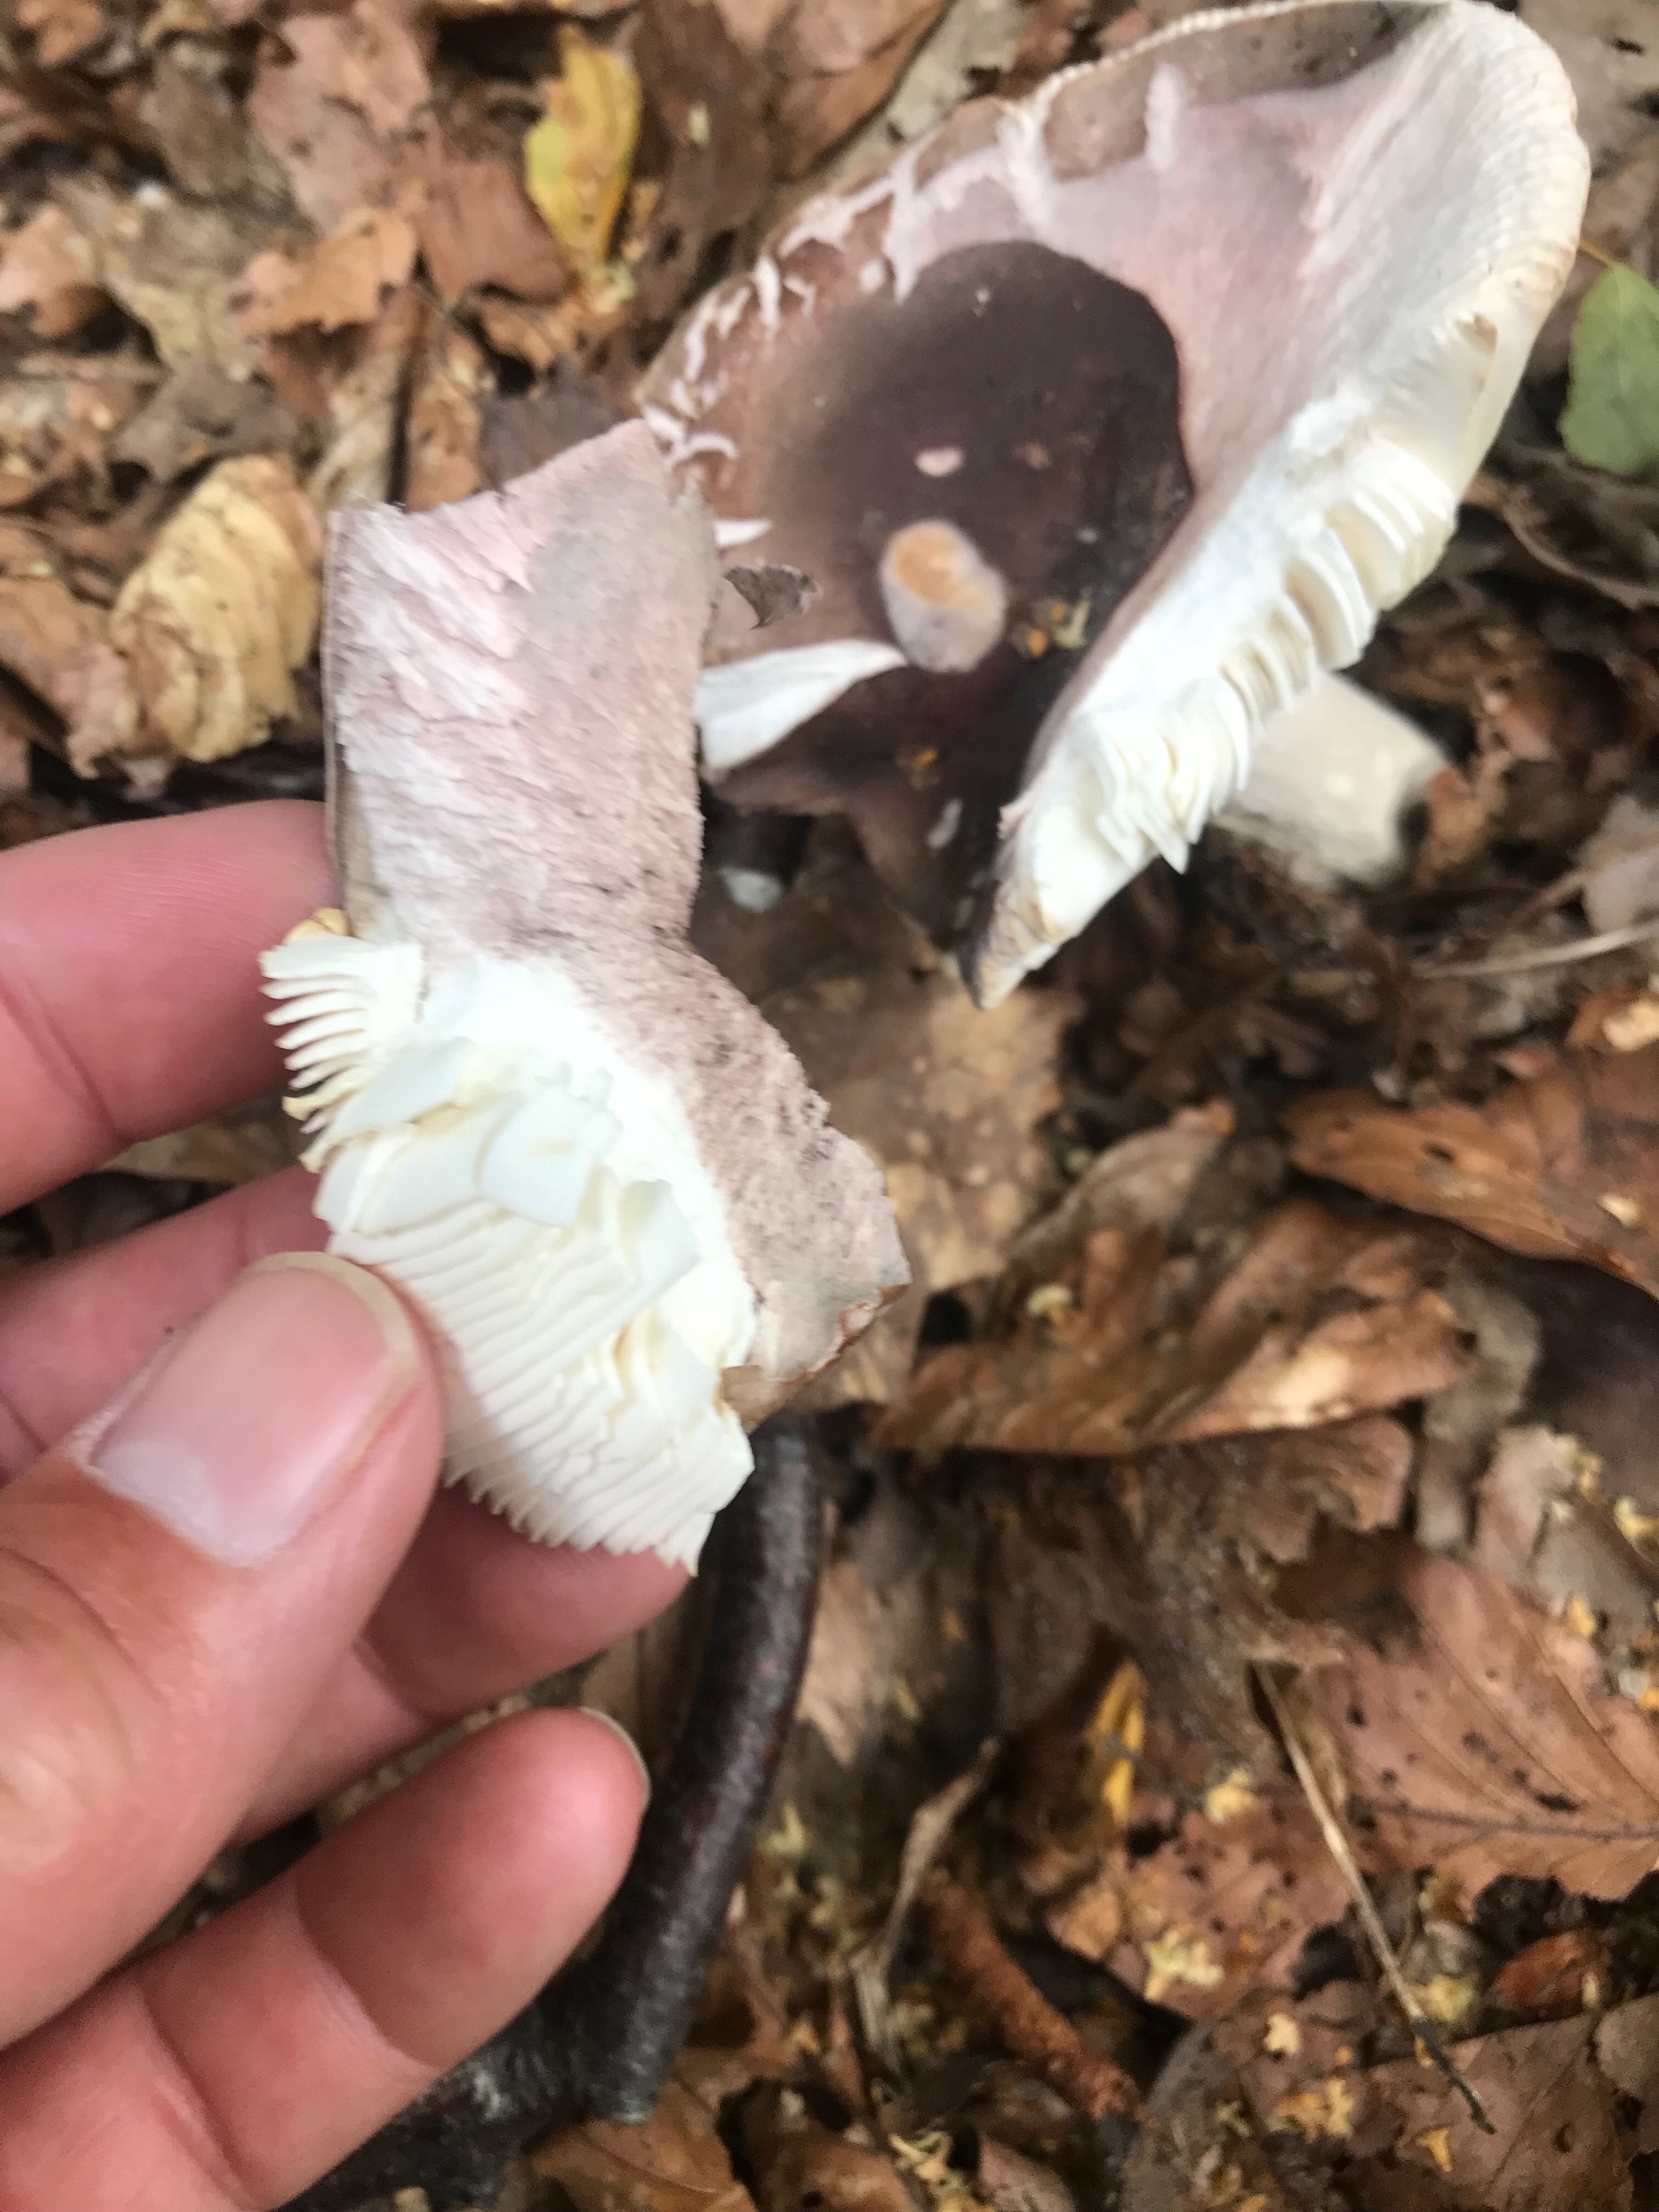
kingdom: Fungi
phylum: Basidiomycota
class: Agaricomycetes
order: Russulales
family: Russulaceae
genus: Russula
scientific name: Russula
